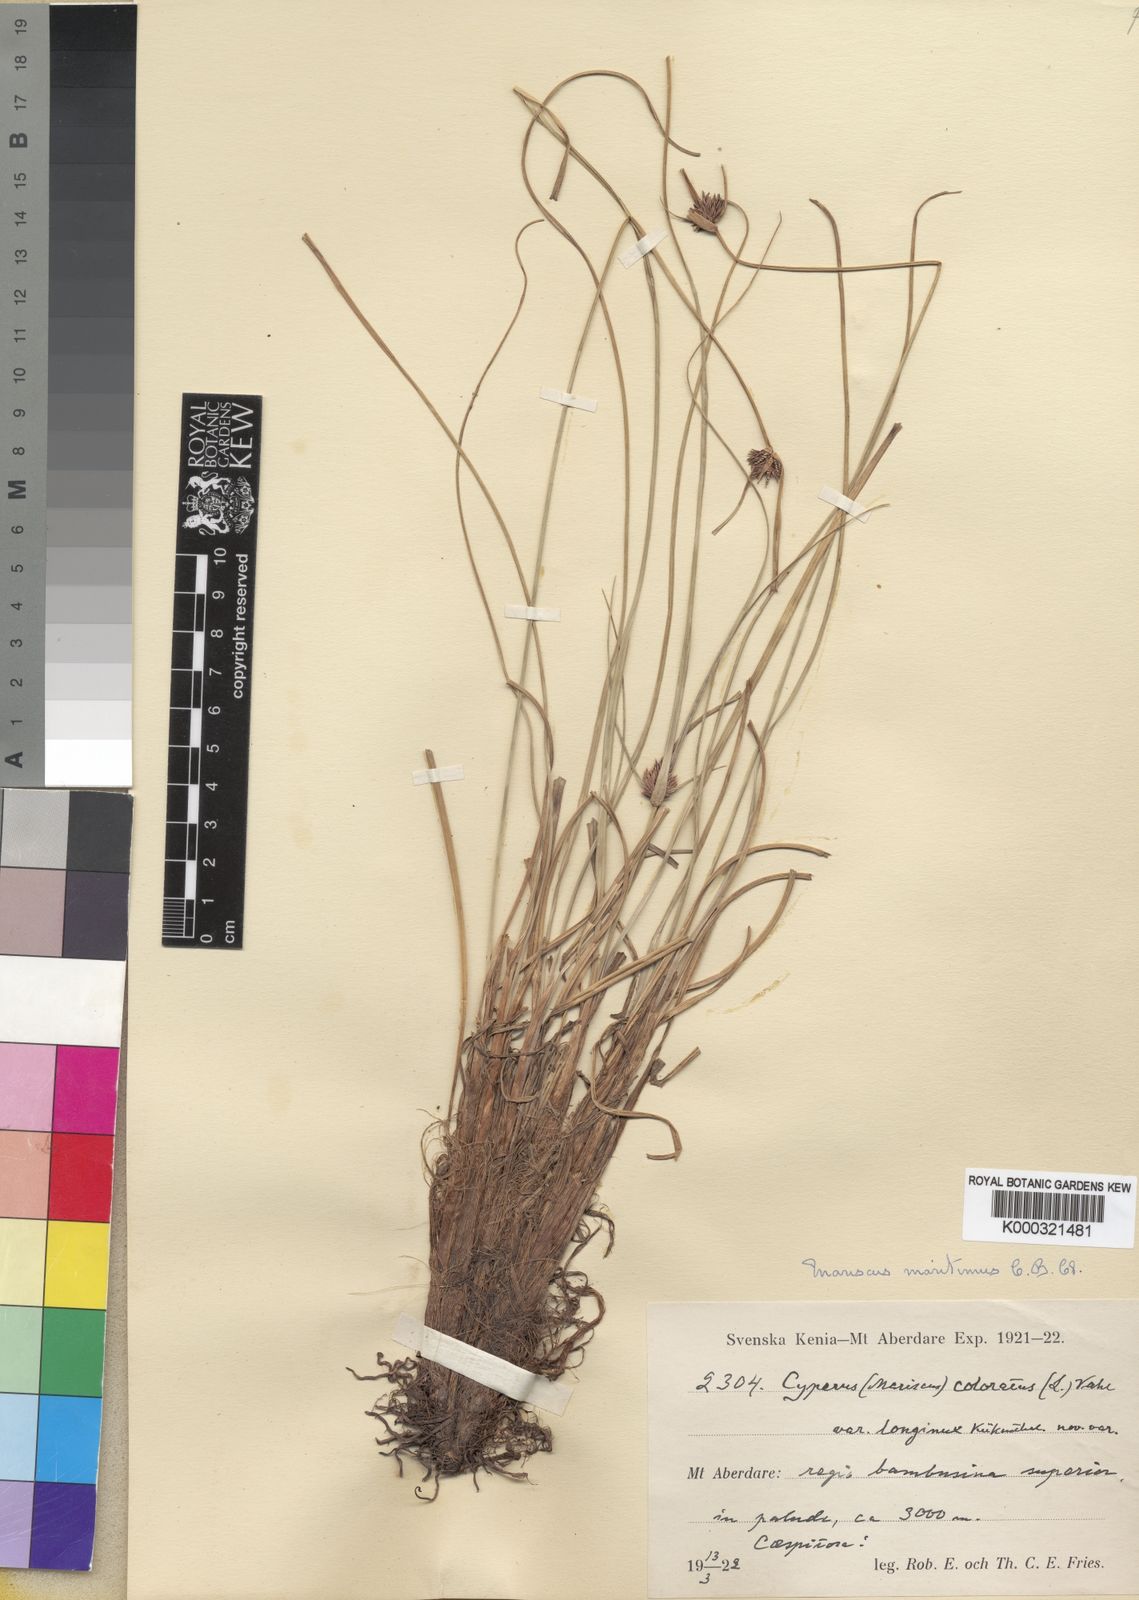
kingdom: Plantae
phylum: Tracheophyta
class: Liliopsida
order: Poales
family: Cyperaceae
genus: Cyperus
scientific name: Cyperus
